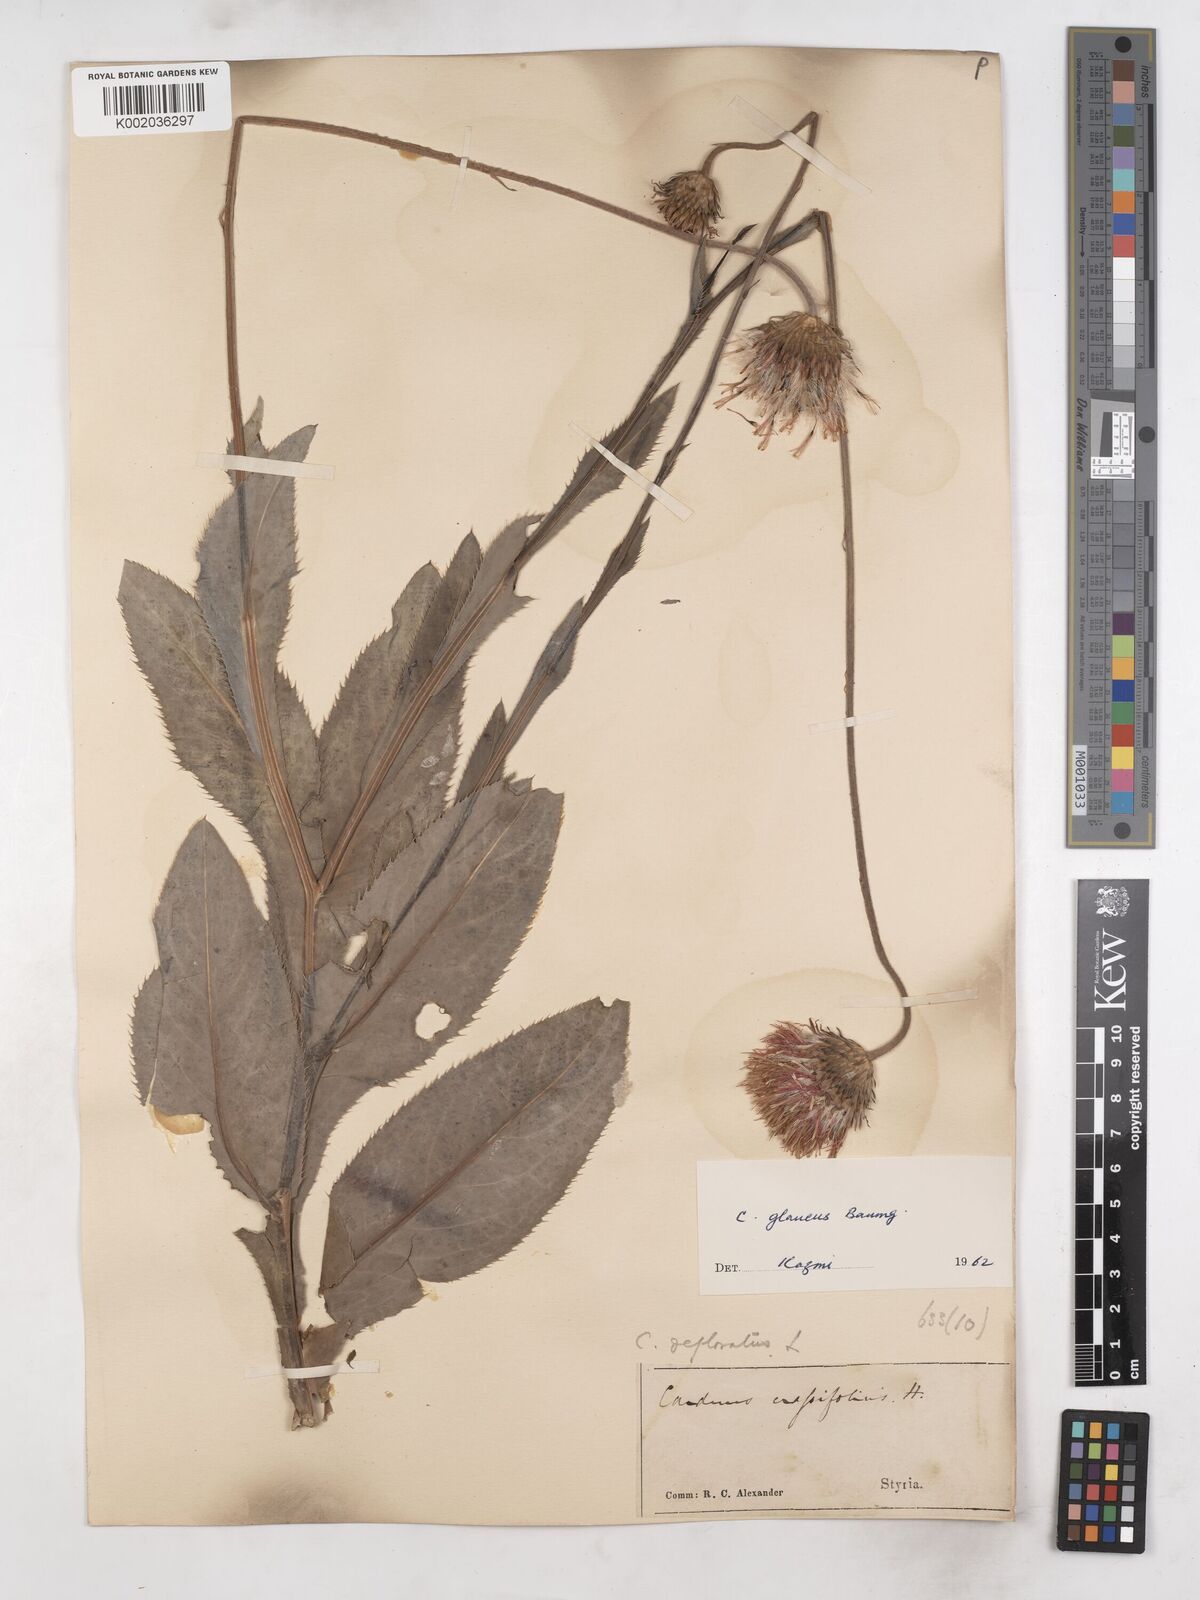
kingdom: Plantae
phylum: Tracheophyta
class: Magnoliopsida
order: Asterales
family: Asteraceae
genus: Carduus
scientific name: Carduus defloratus
